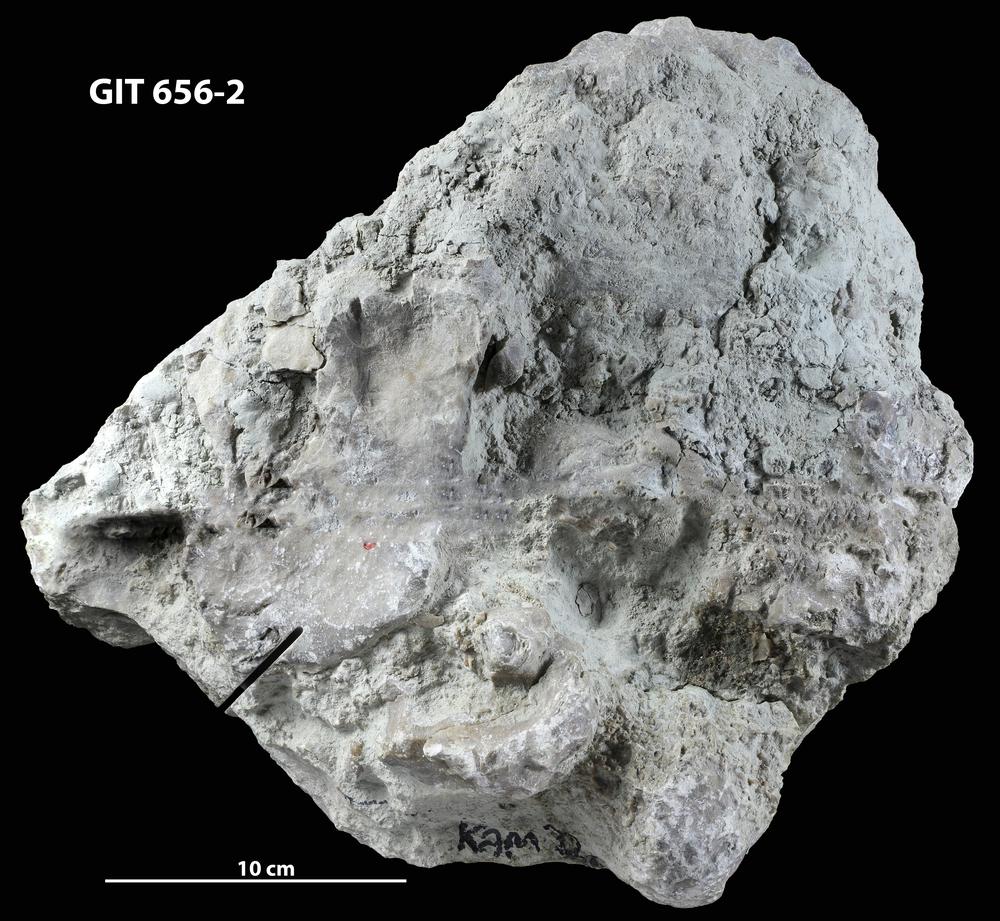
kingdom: Animalia
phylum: Cnidaria
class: Anthozoa
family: Syringoporidae
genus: Syringopora
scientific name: Syringopora
